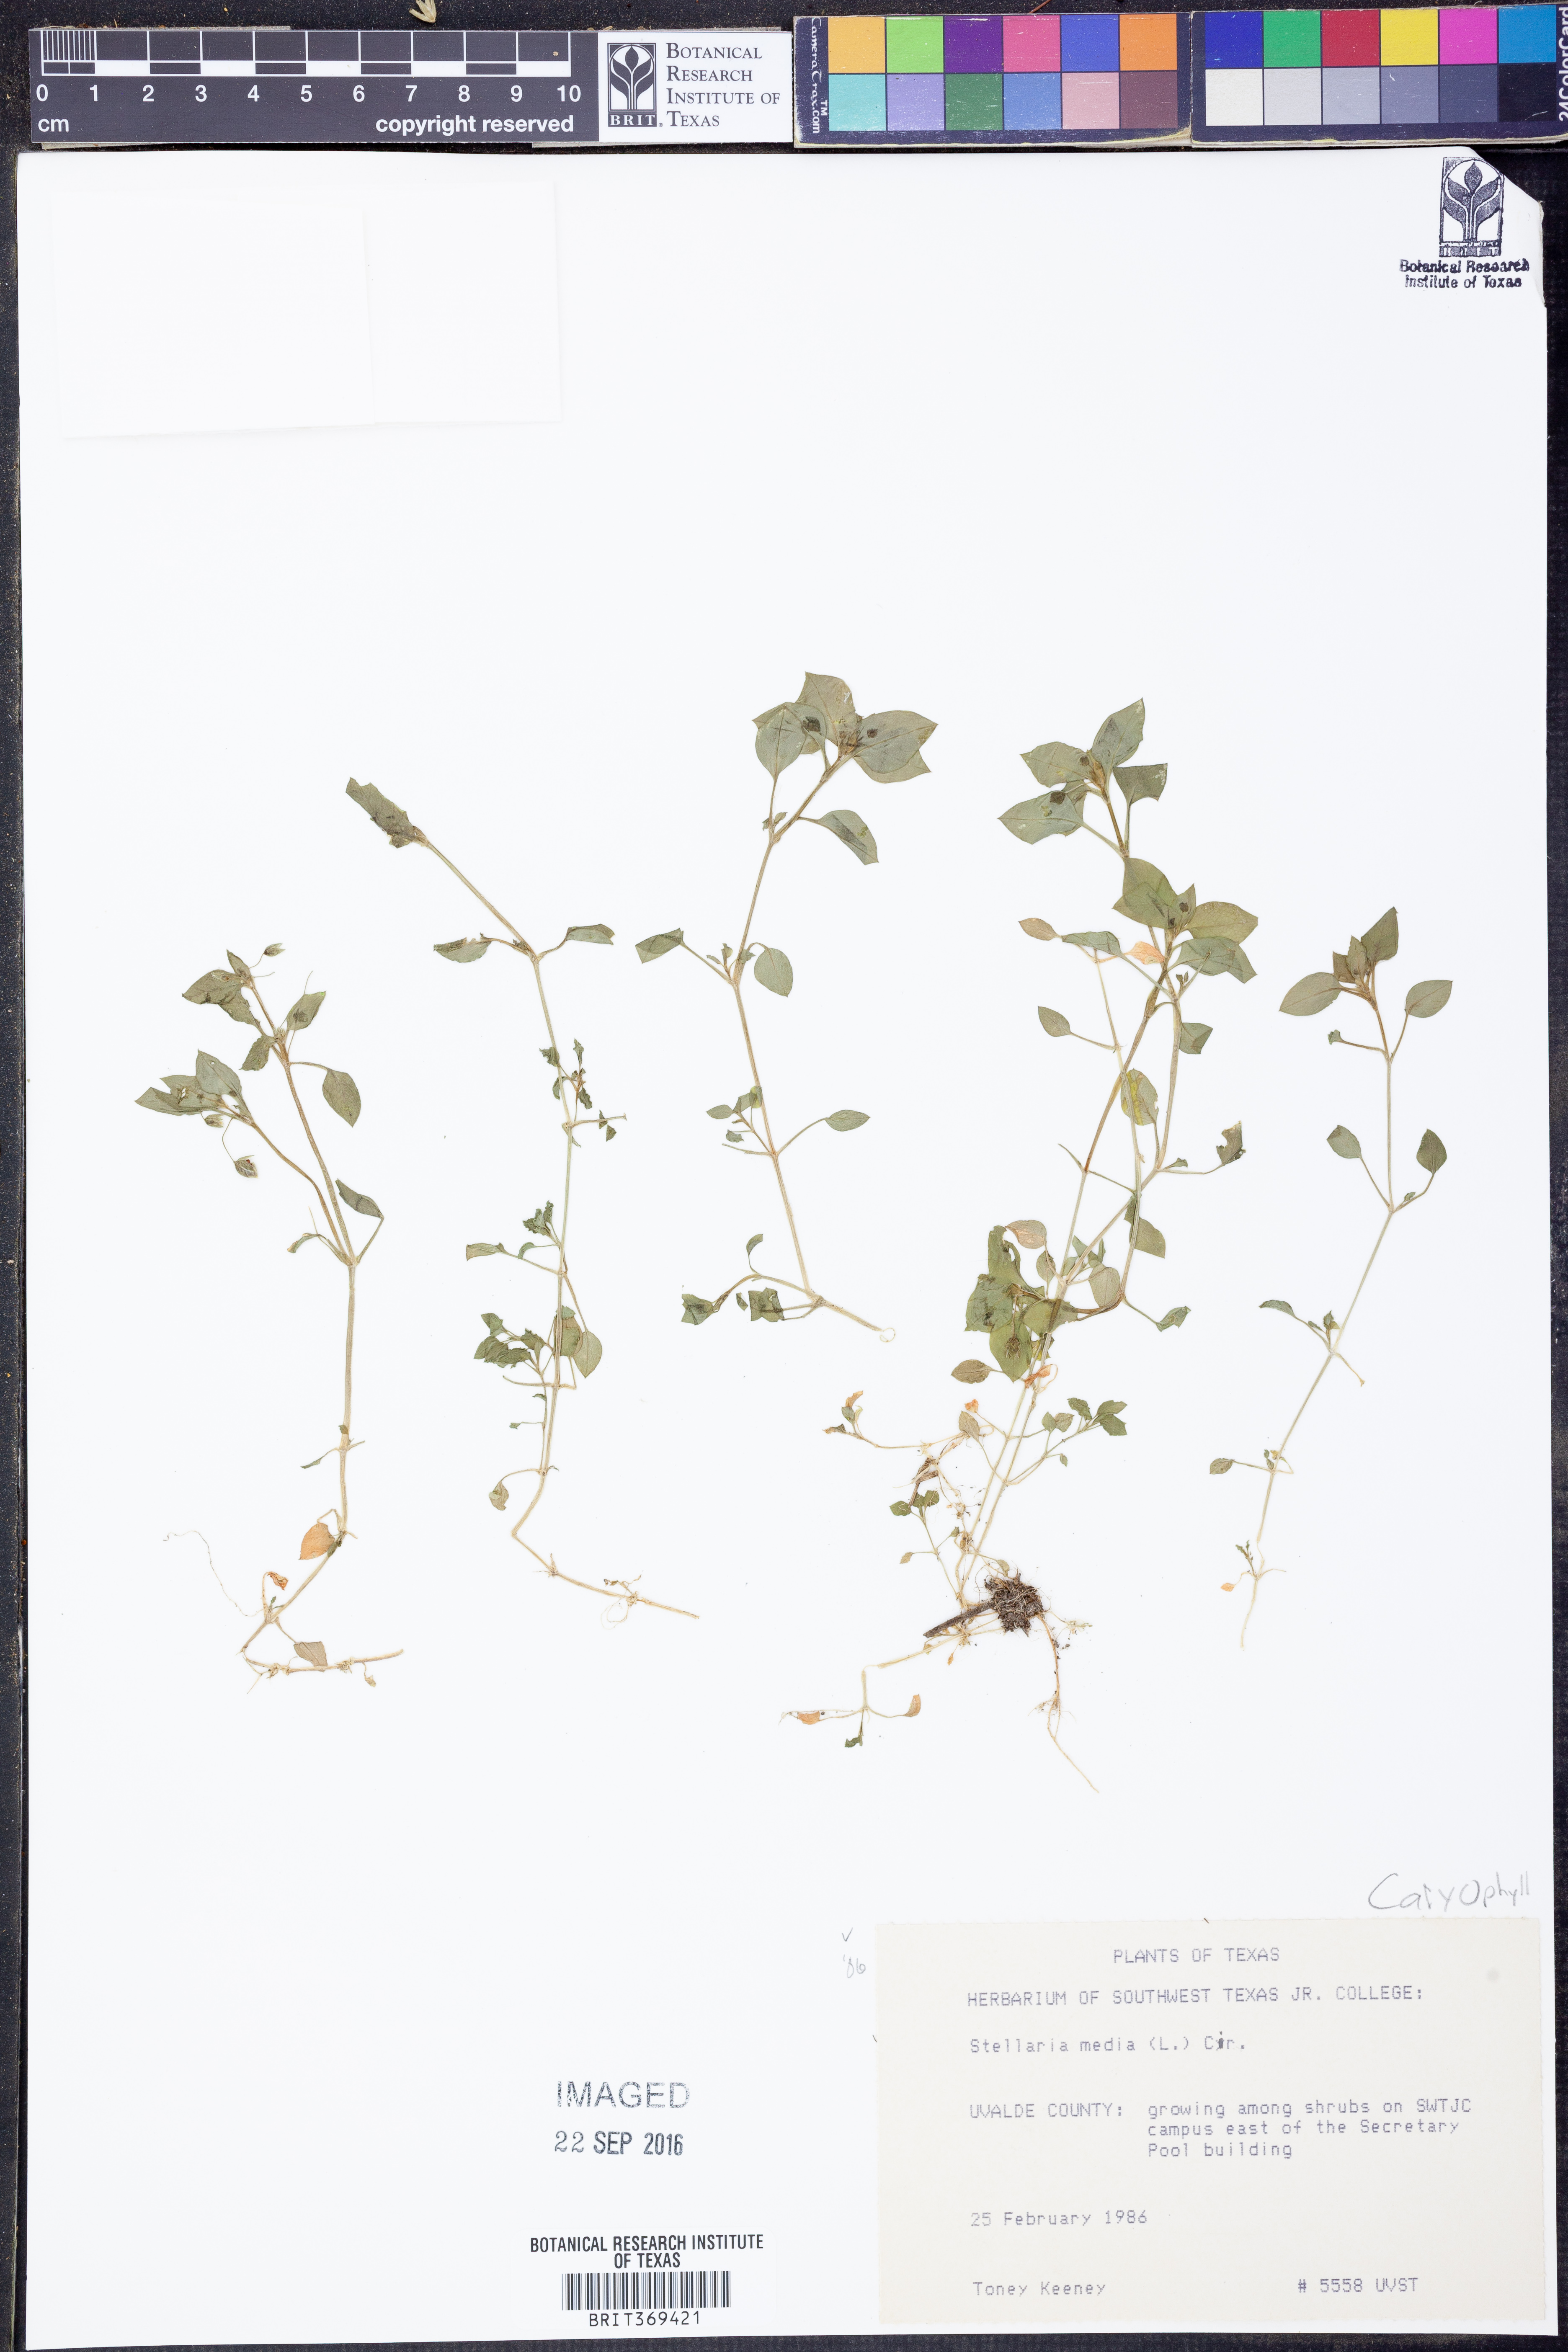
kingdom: Plantae
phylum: Tracheophyta
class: Magnoliopsida
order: Caryophyllales
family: Caryophyllaceae
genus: Stellaria
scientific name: Stellaria media
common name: Common chickweed
